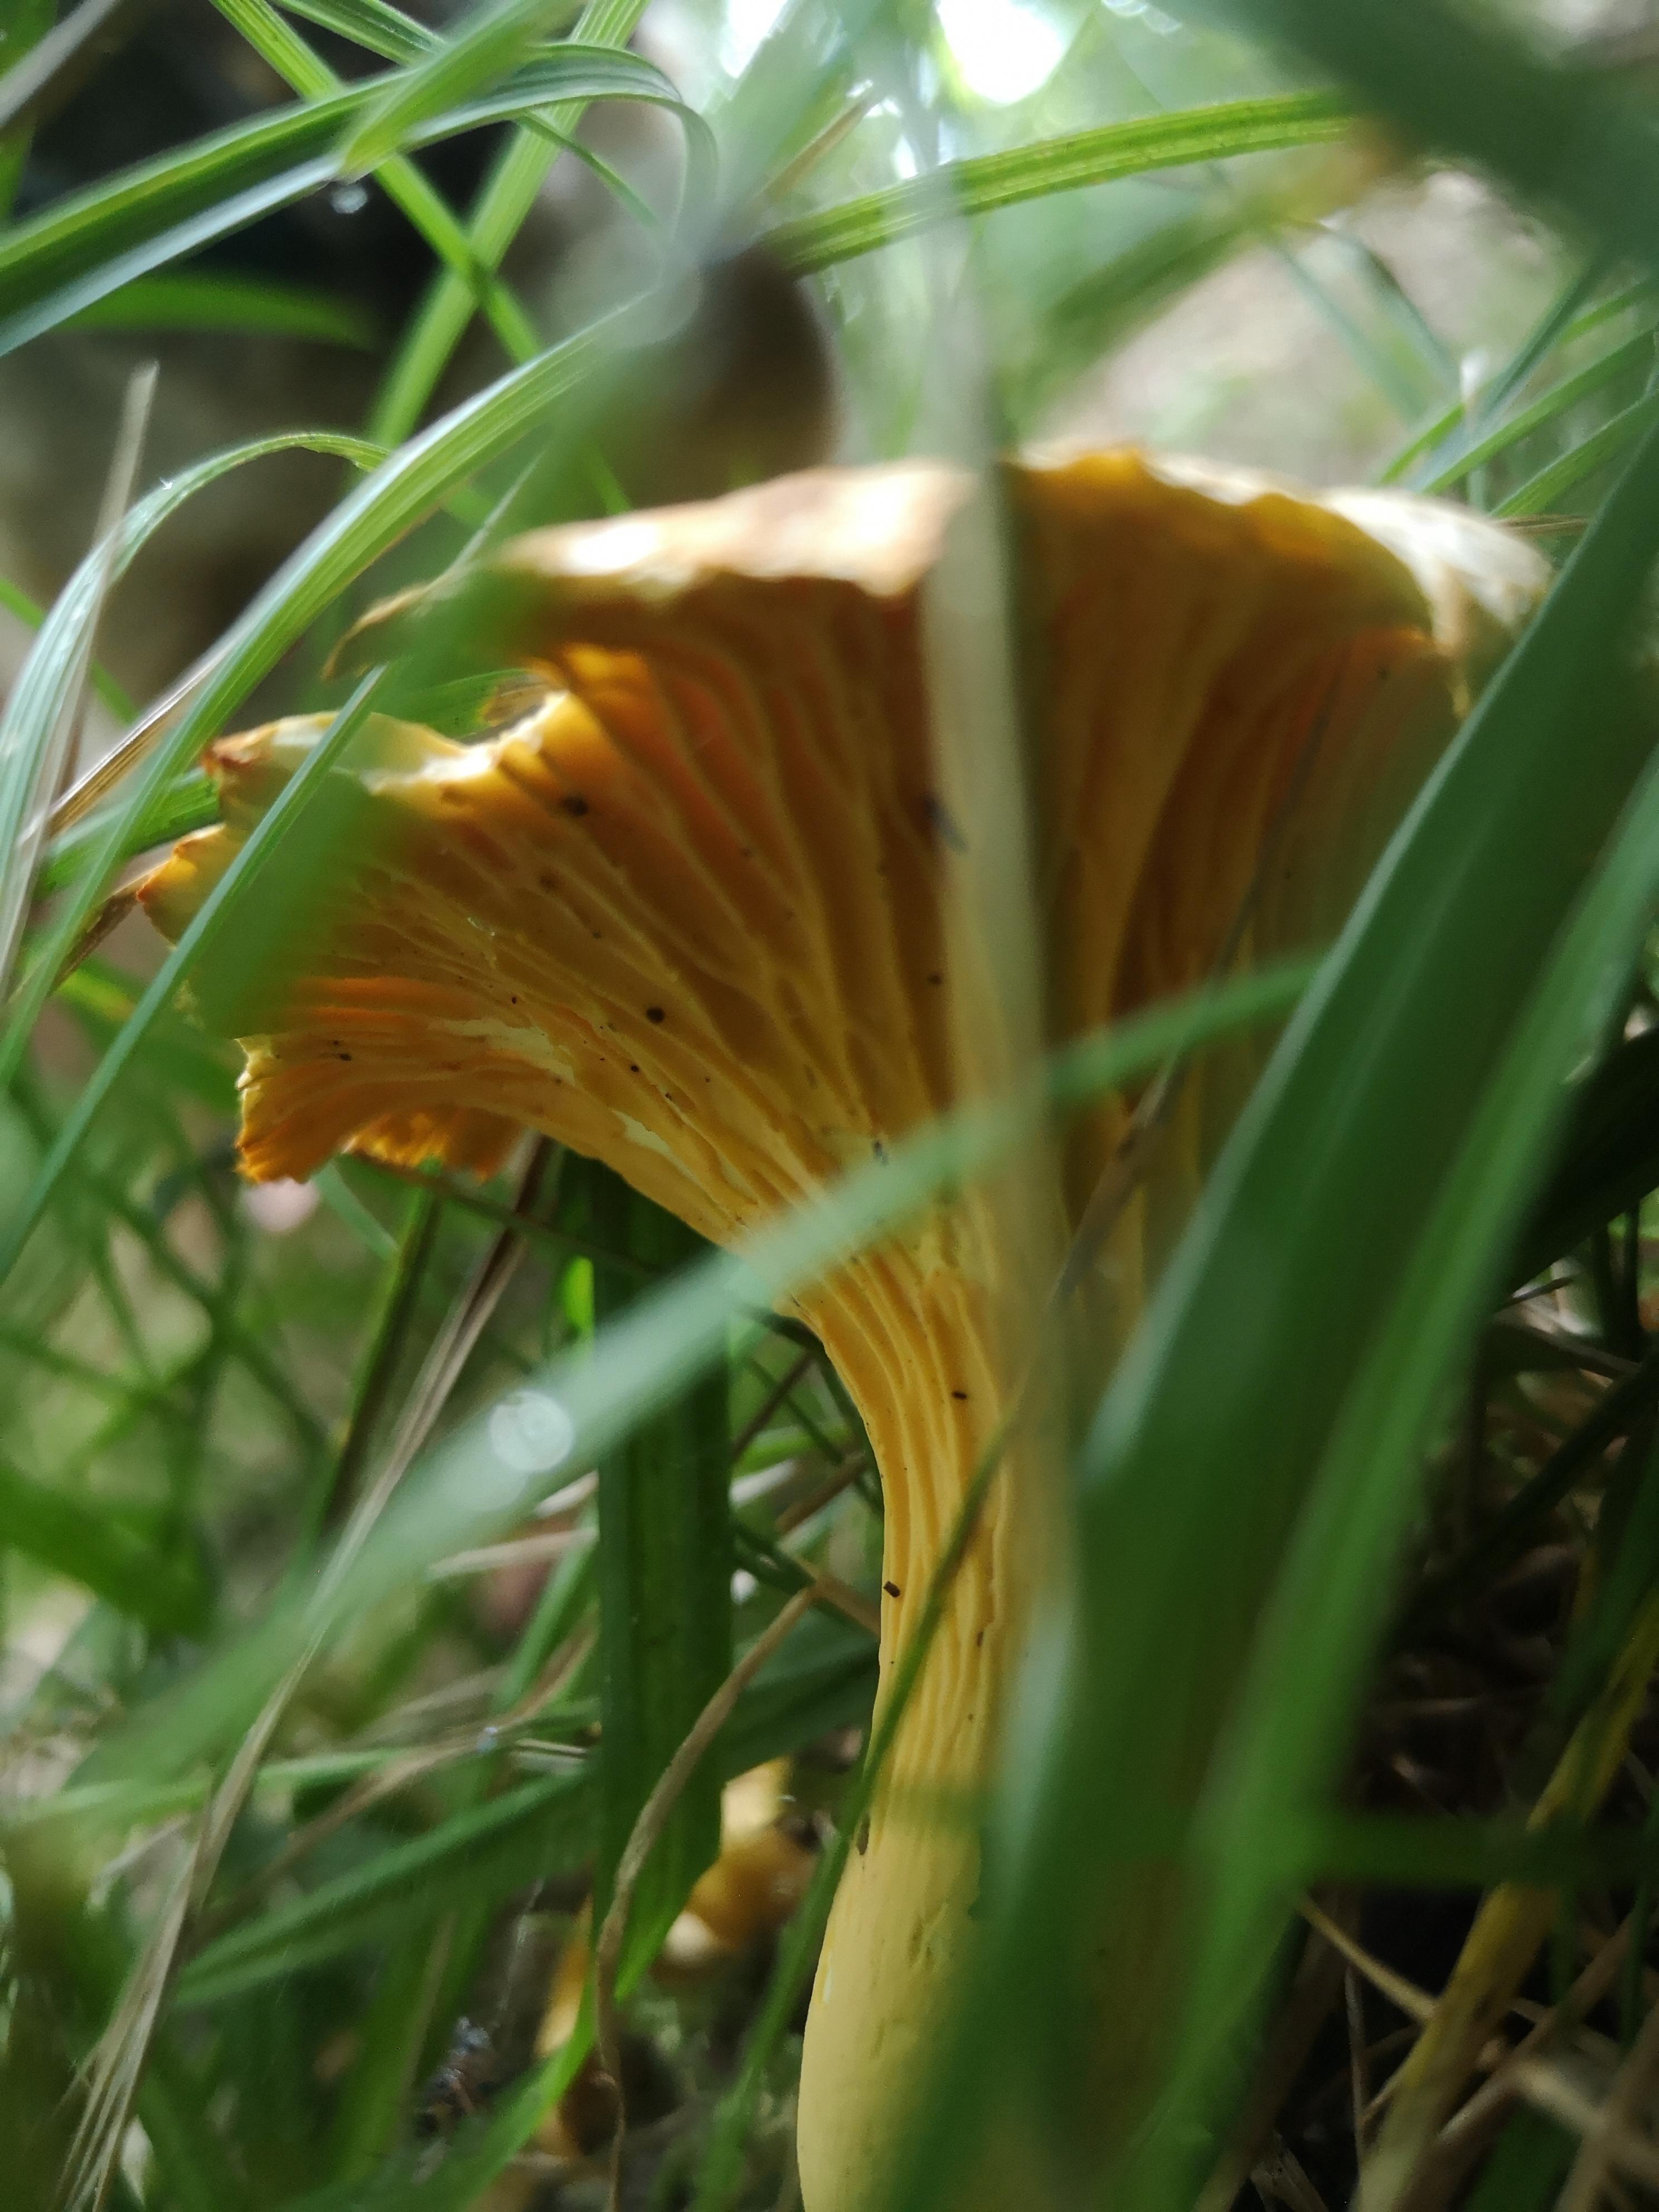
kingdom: Fungi
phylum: Basidiomycota
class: Agaricomycetes
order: Cantharellales
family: Hydnaceae
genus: Cantharellus
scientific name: Cantharellus cibarius
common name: almindelig kantarel
